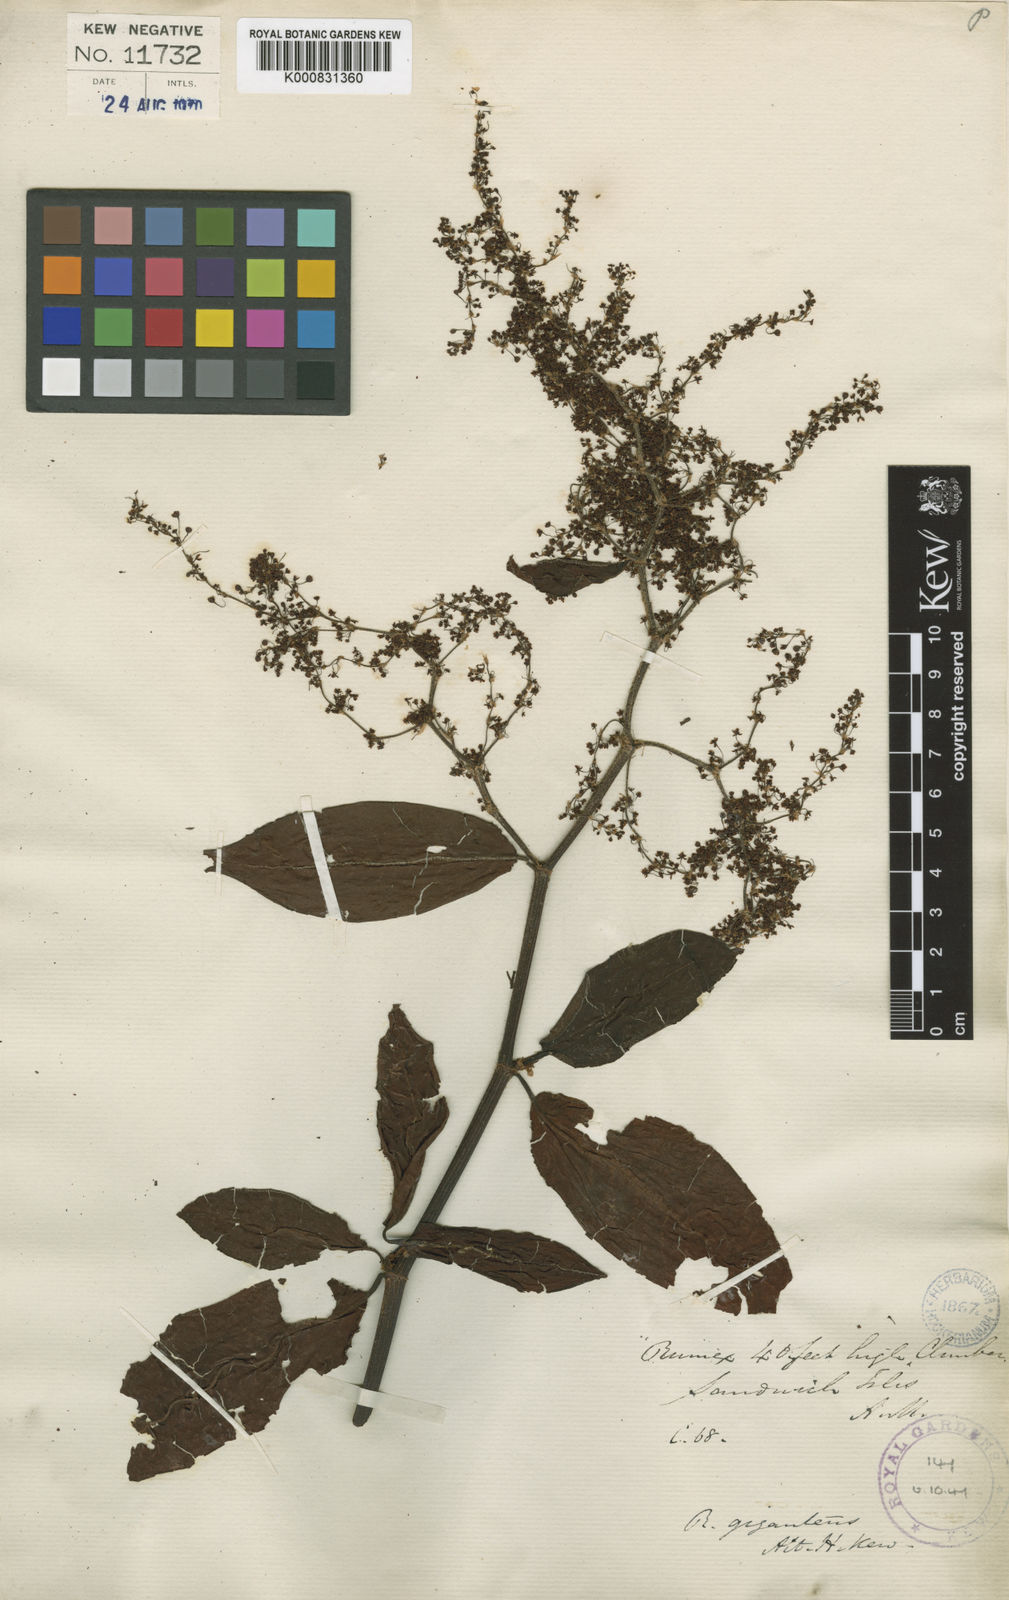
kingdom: Plantae
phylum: Tracheophyta
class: Magnoliopsida
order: Caryophyllales
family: Polygonaceae
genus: Rumex
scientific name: Rumex giganteus
